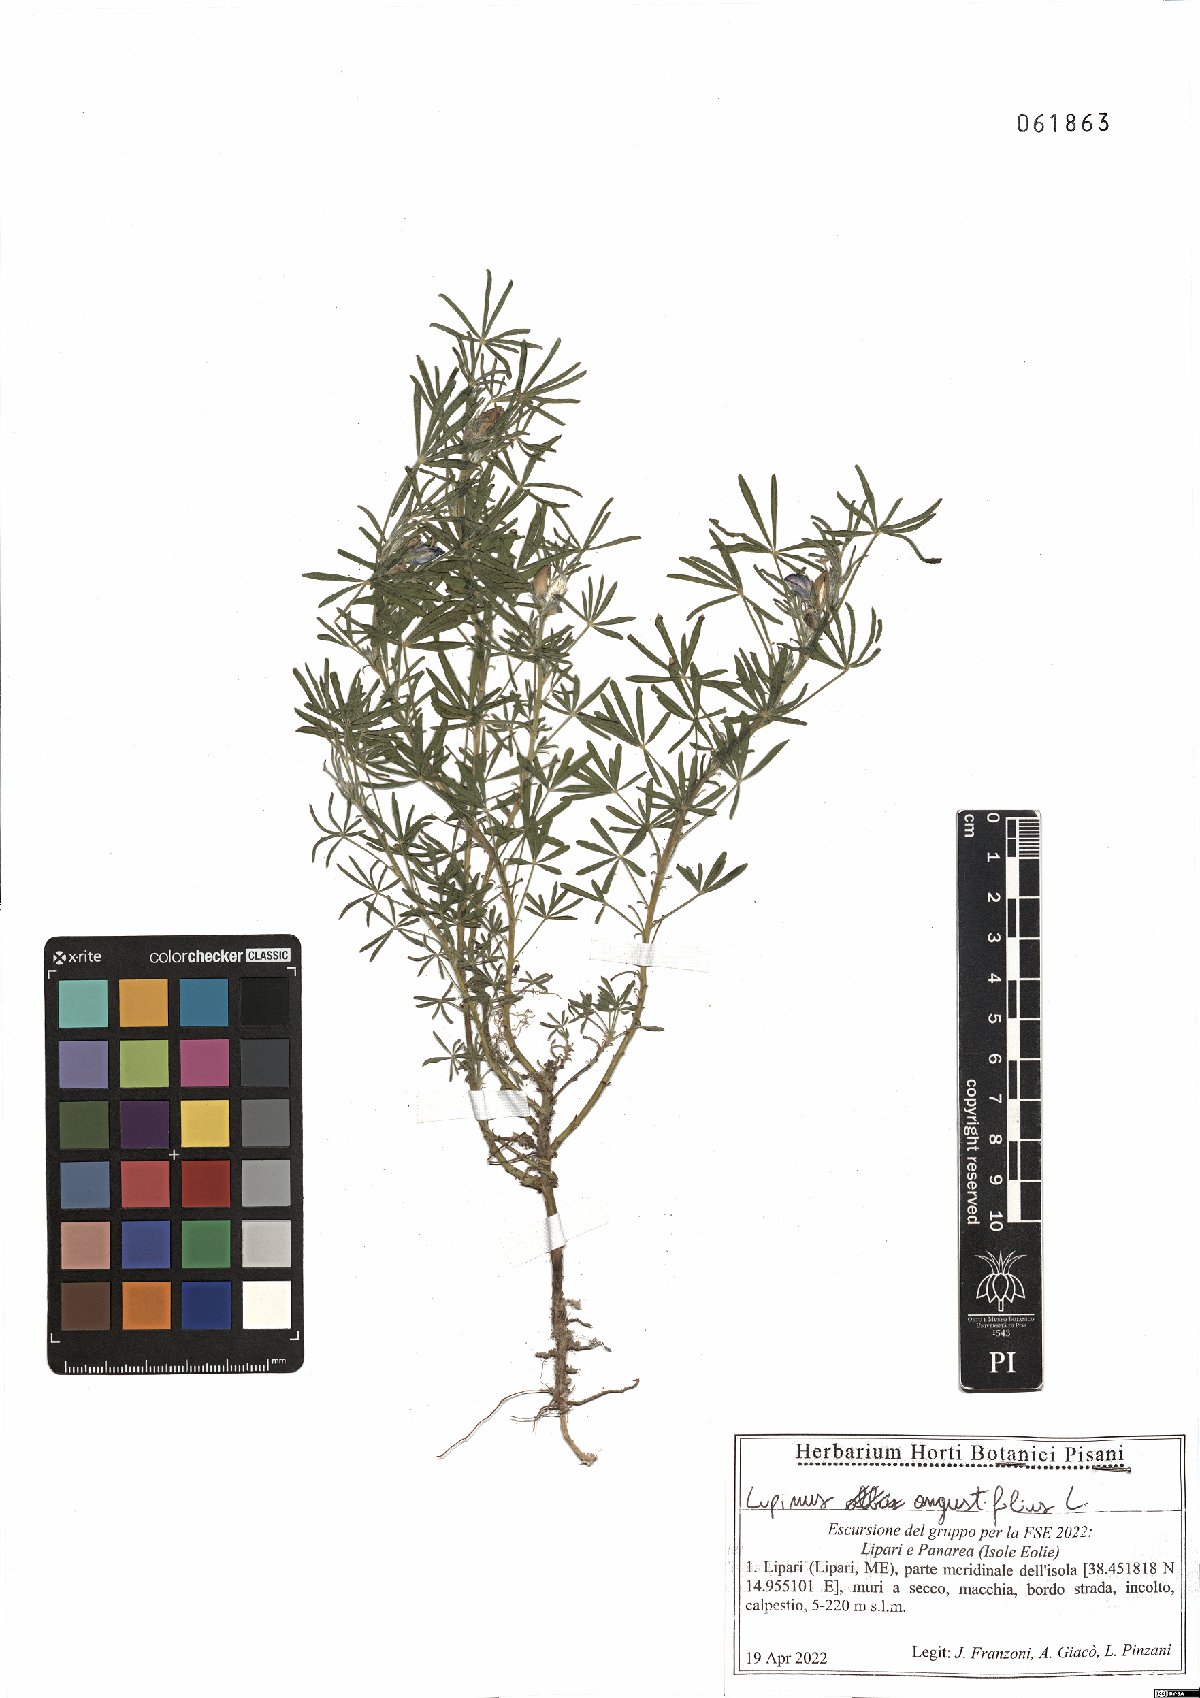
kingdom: Plantae
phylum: Tracheophyta
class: Magnoliopsida
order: Fabales
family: Fabaceae
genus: Lupinus
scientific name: Lupinus angustifolius
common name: Narrow-leaved lupin
